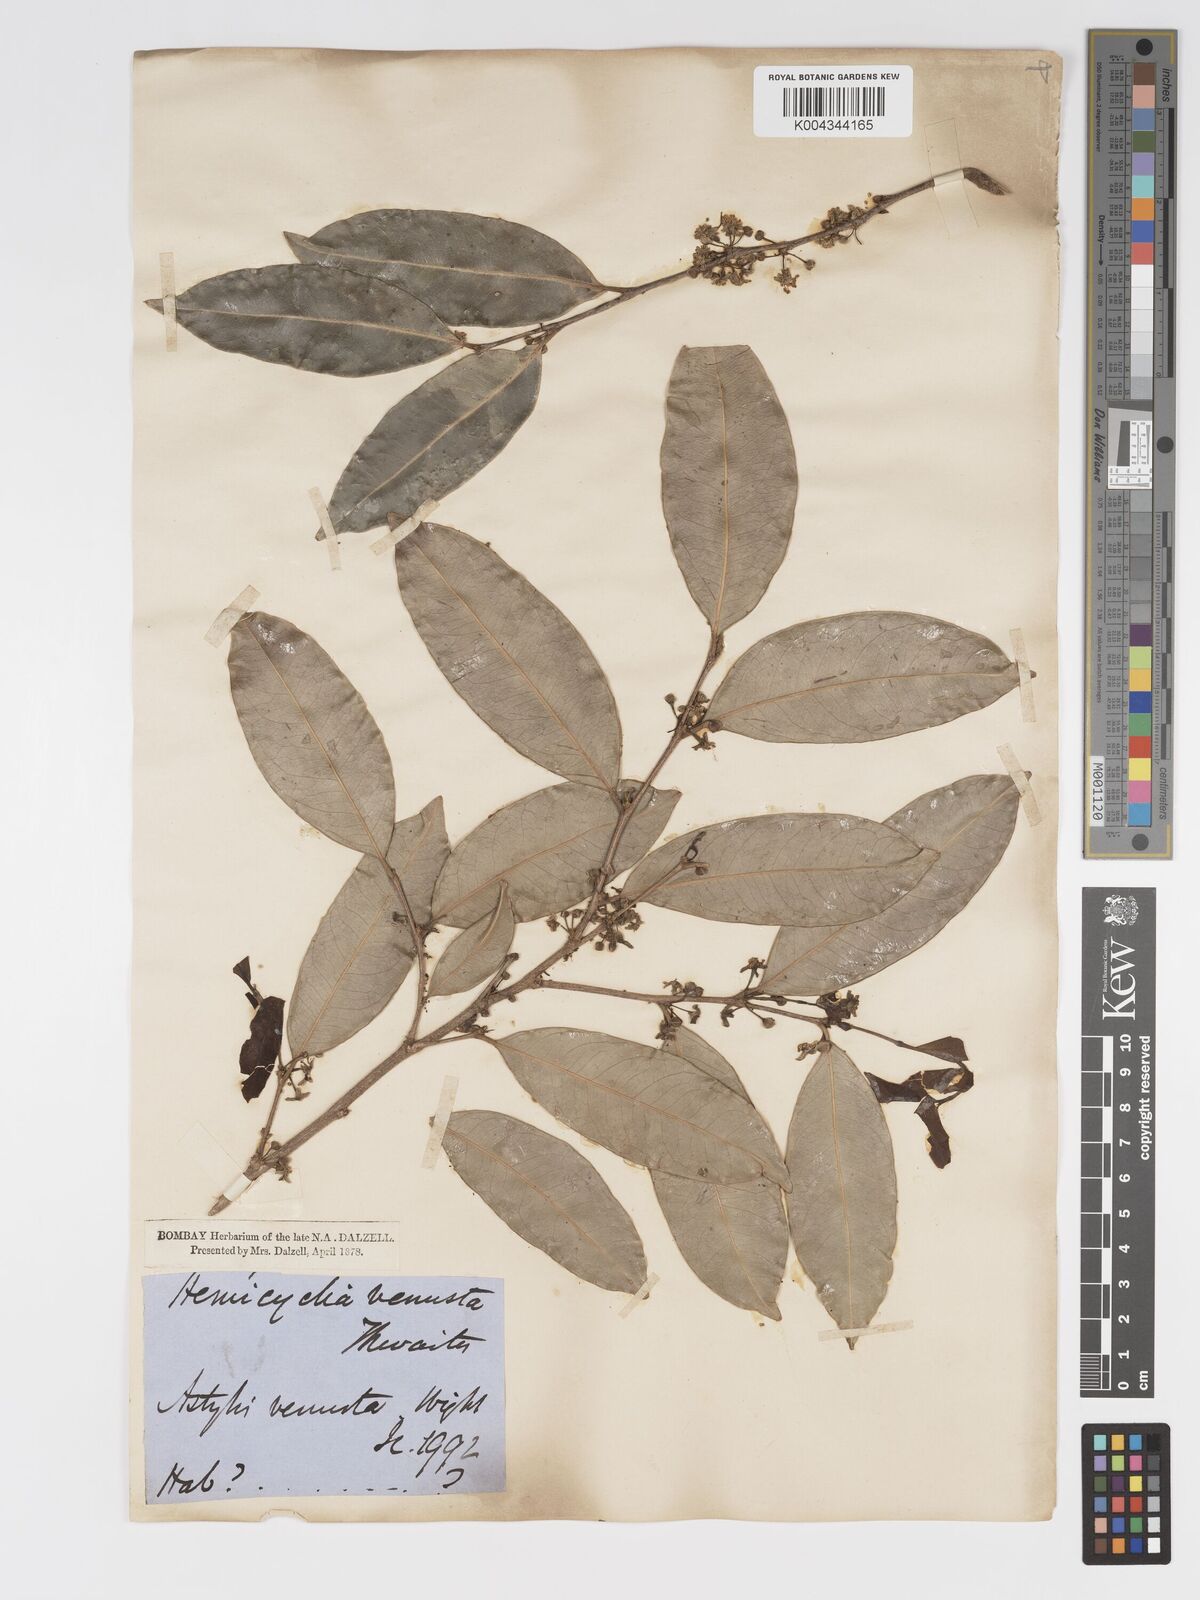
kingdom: Plantae
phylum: Tracheophyta
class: Magnoliopsida
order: Malpighiales
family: Putranjivaceae
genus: Drypetes
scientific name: Drypetes venusta
